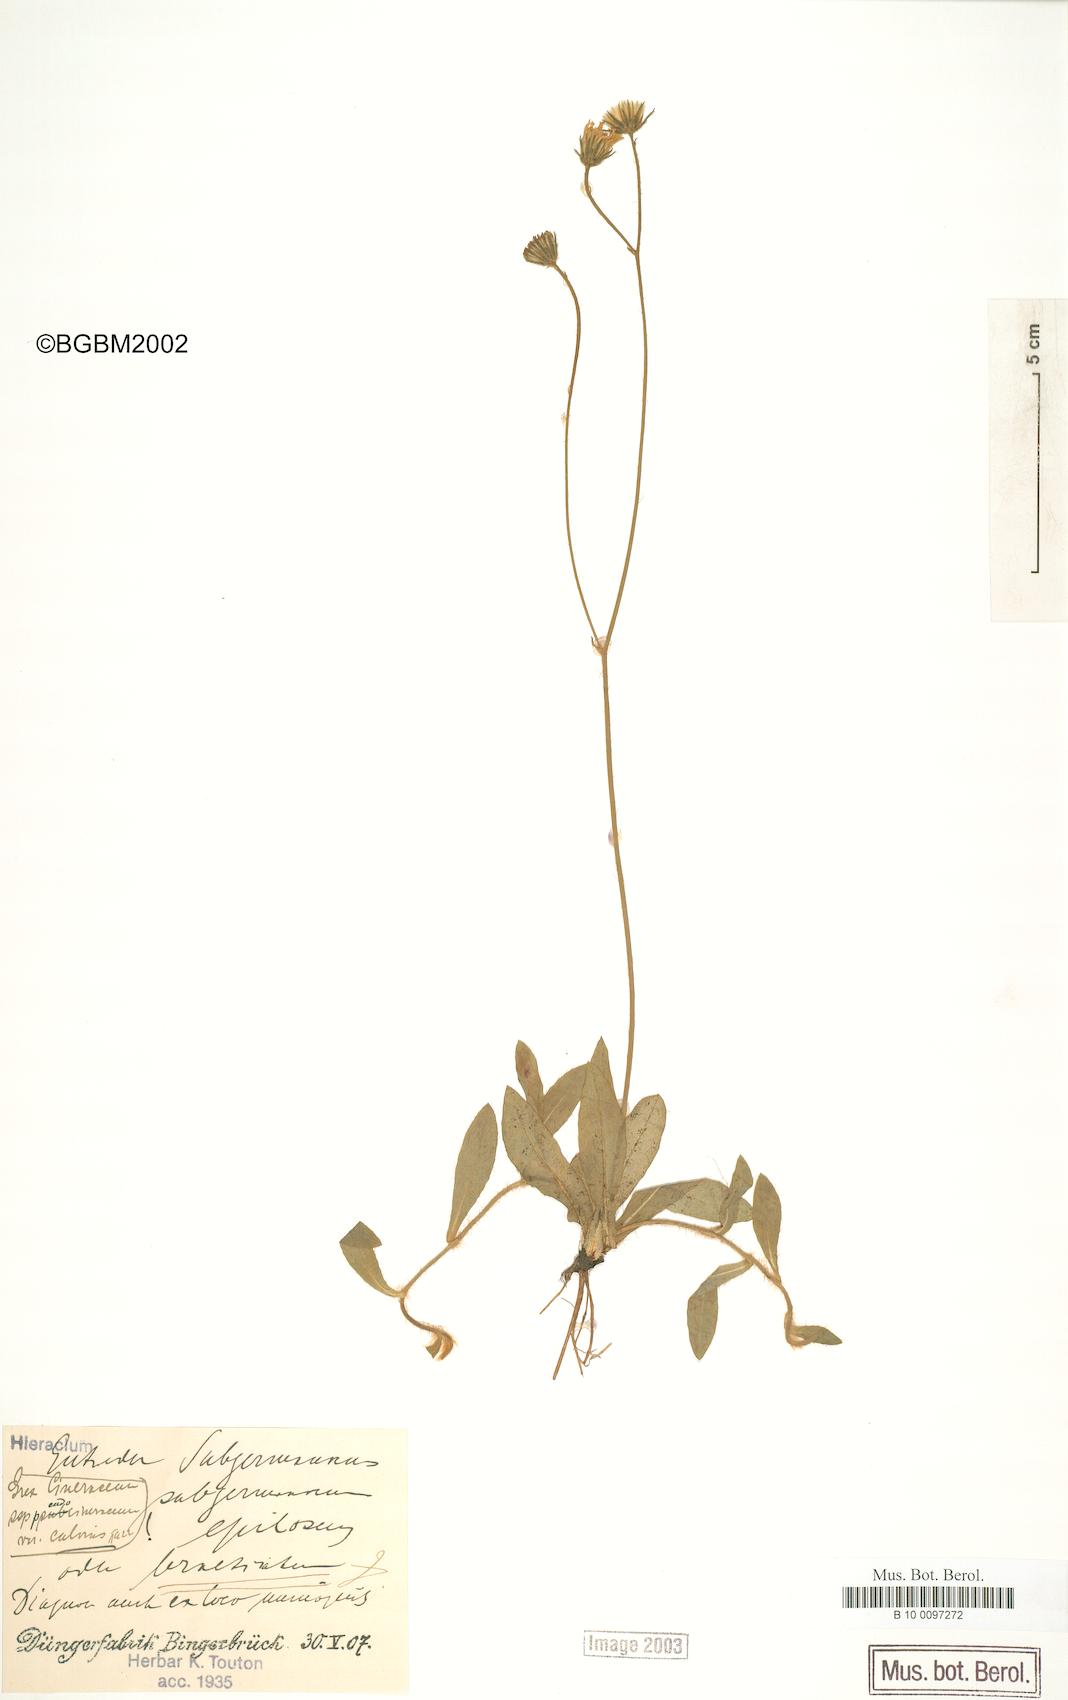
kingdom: Plantae
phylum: Tracheophyta
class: Magnoliopsida
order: Asterales
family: Asteraceae
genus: Pilosella
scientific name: Pilosella acutifolia
